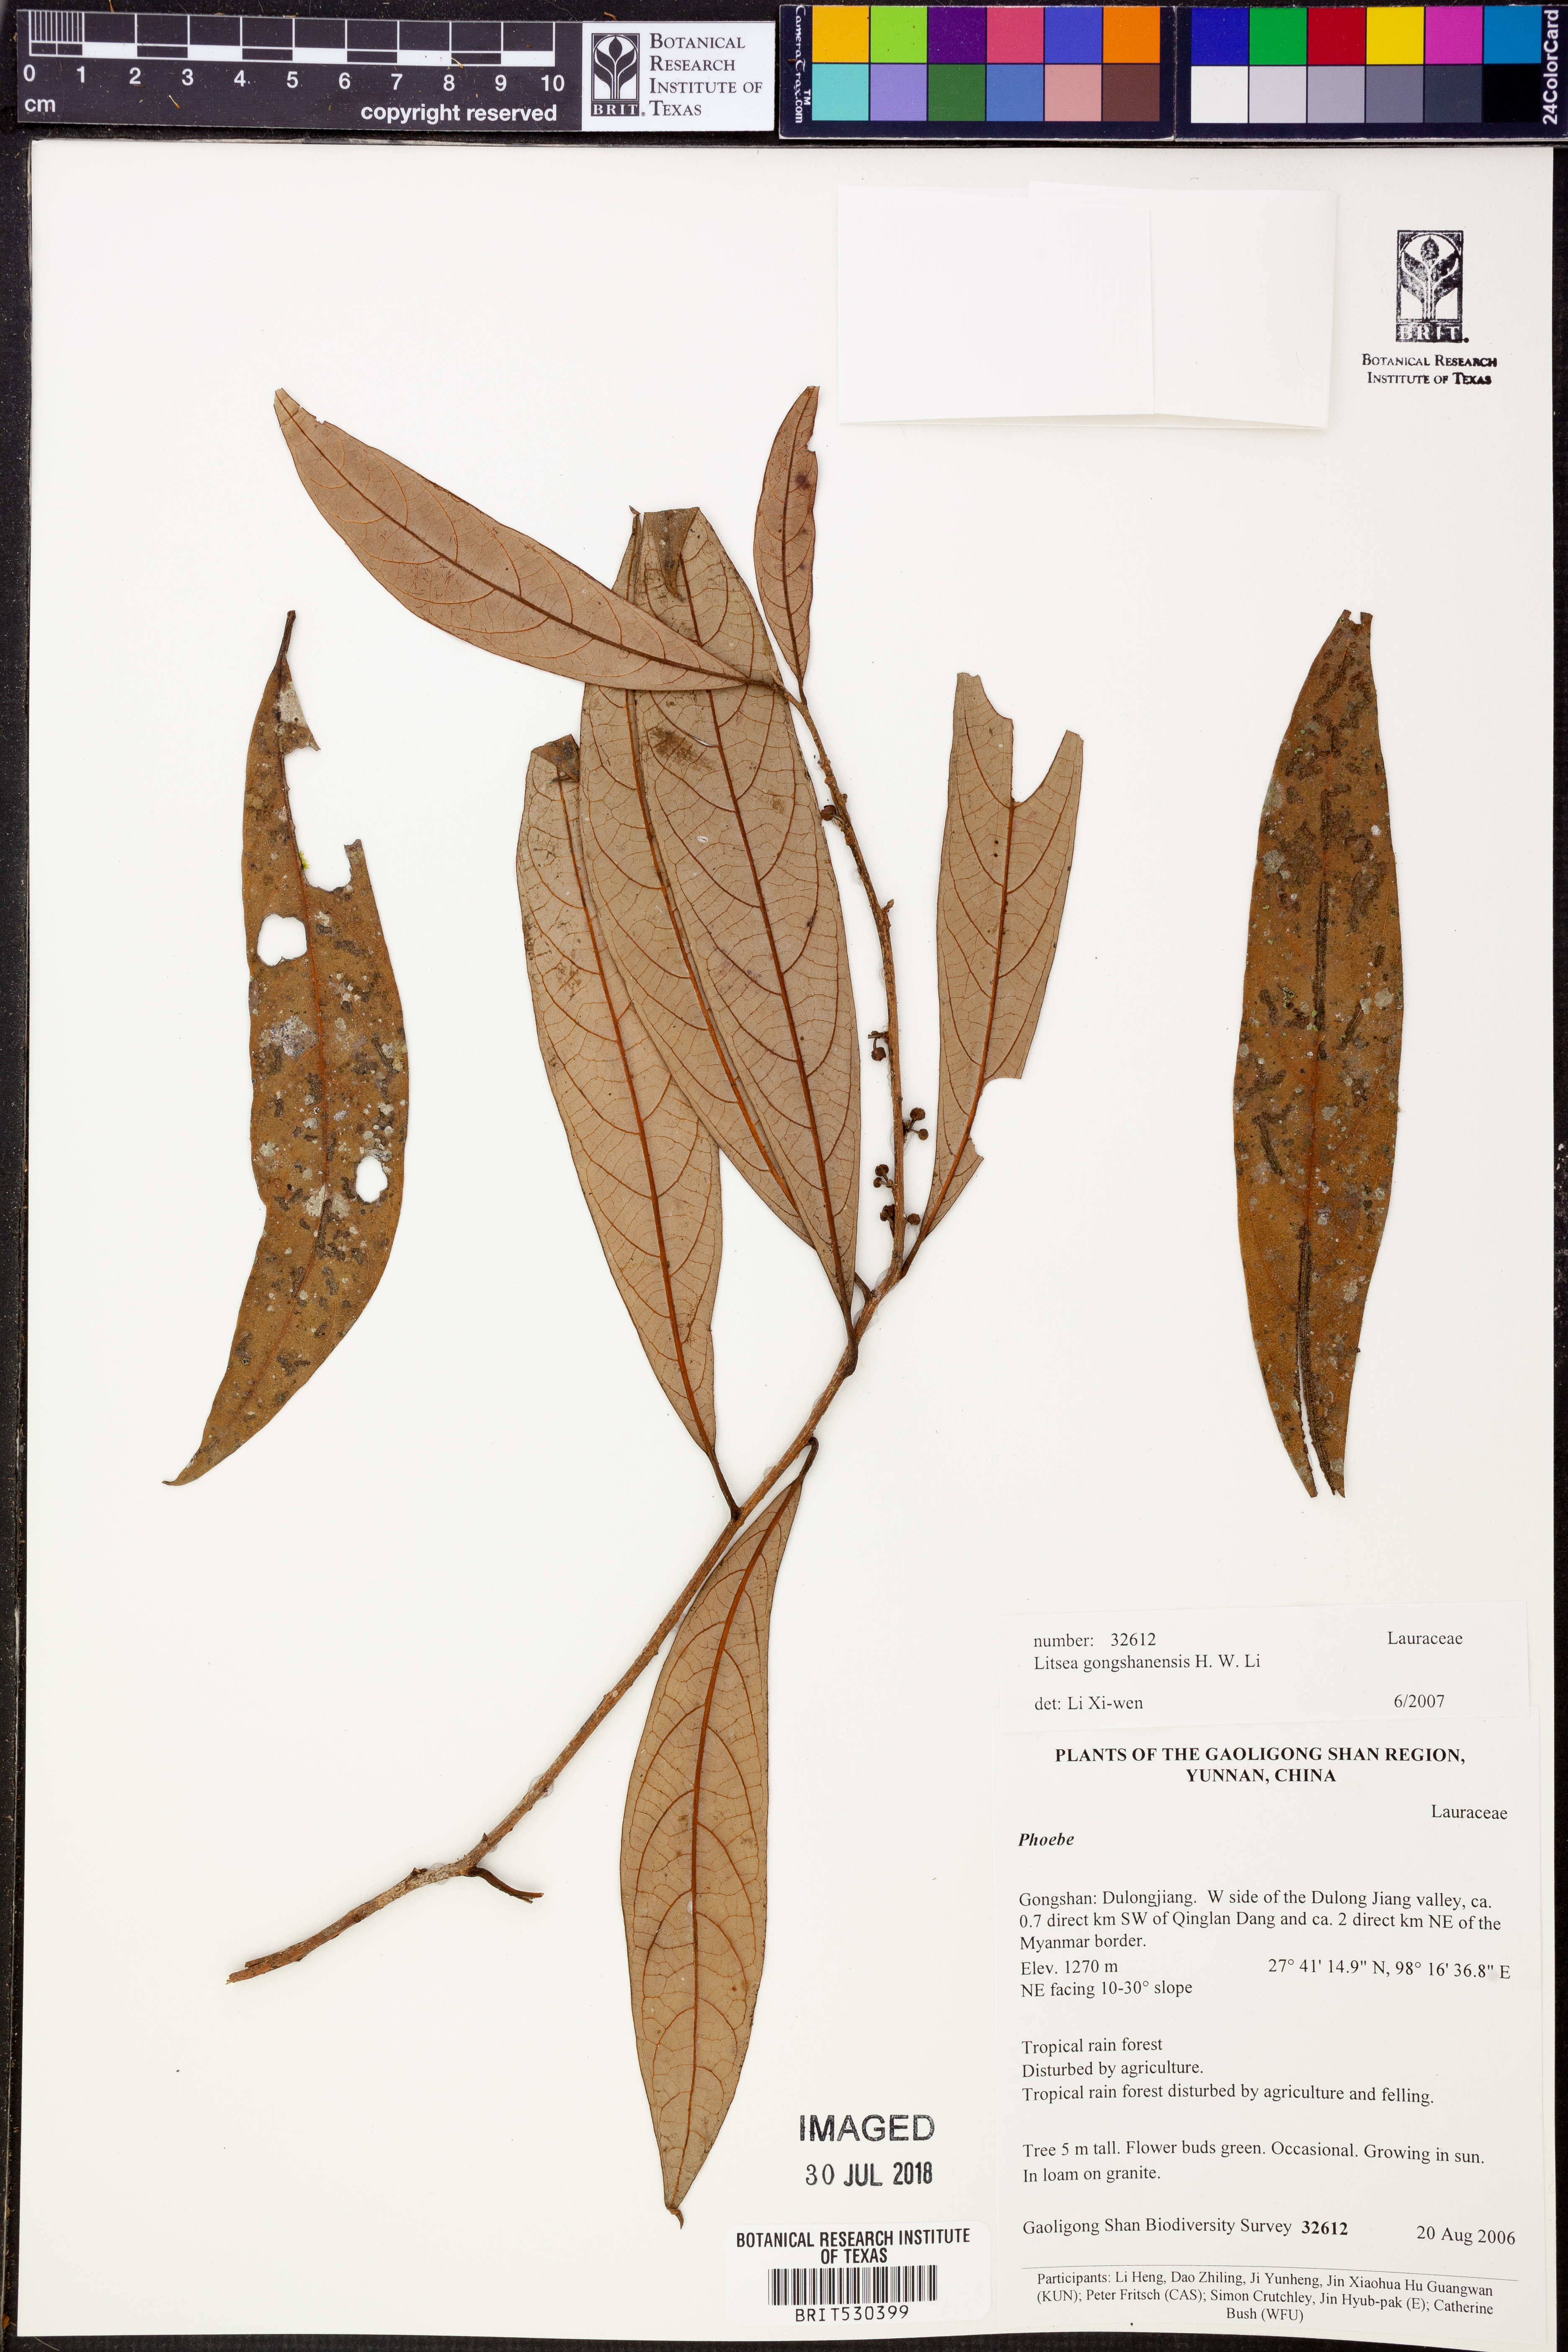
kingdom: Plantae
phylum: Tracheophyta
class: Magnoliopsida
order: Laurales
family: Lauraceae
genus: Litsea
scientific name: Litsea gongshanensis
